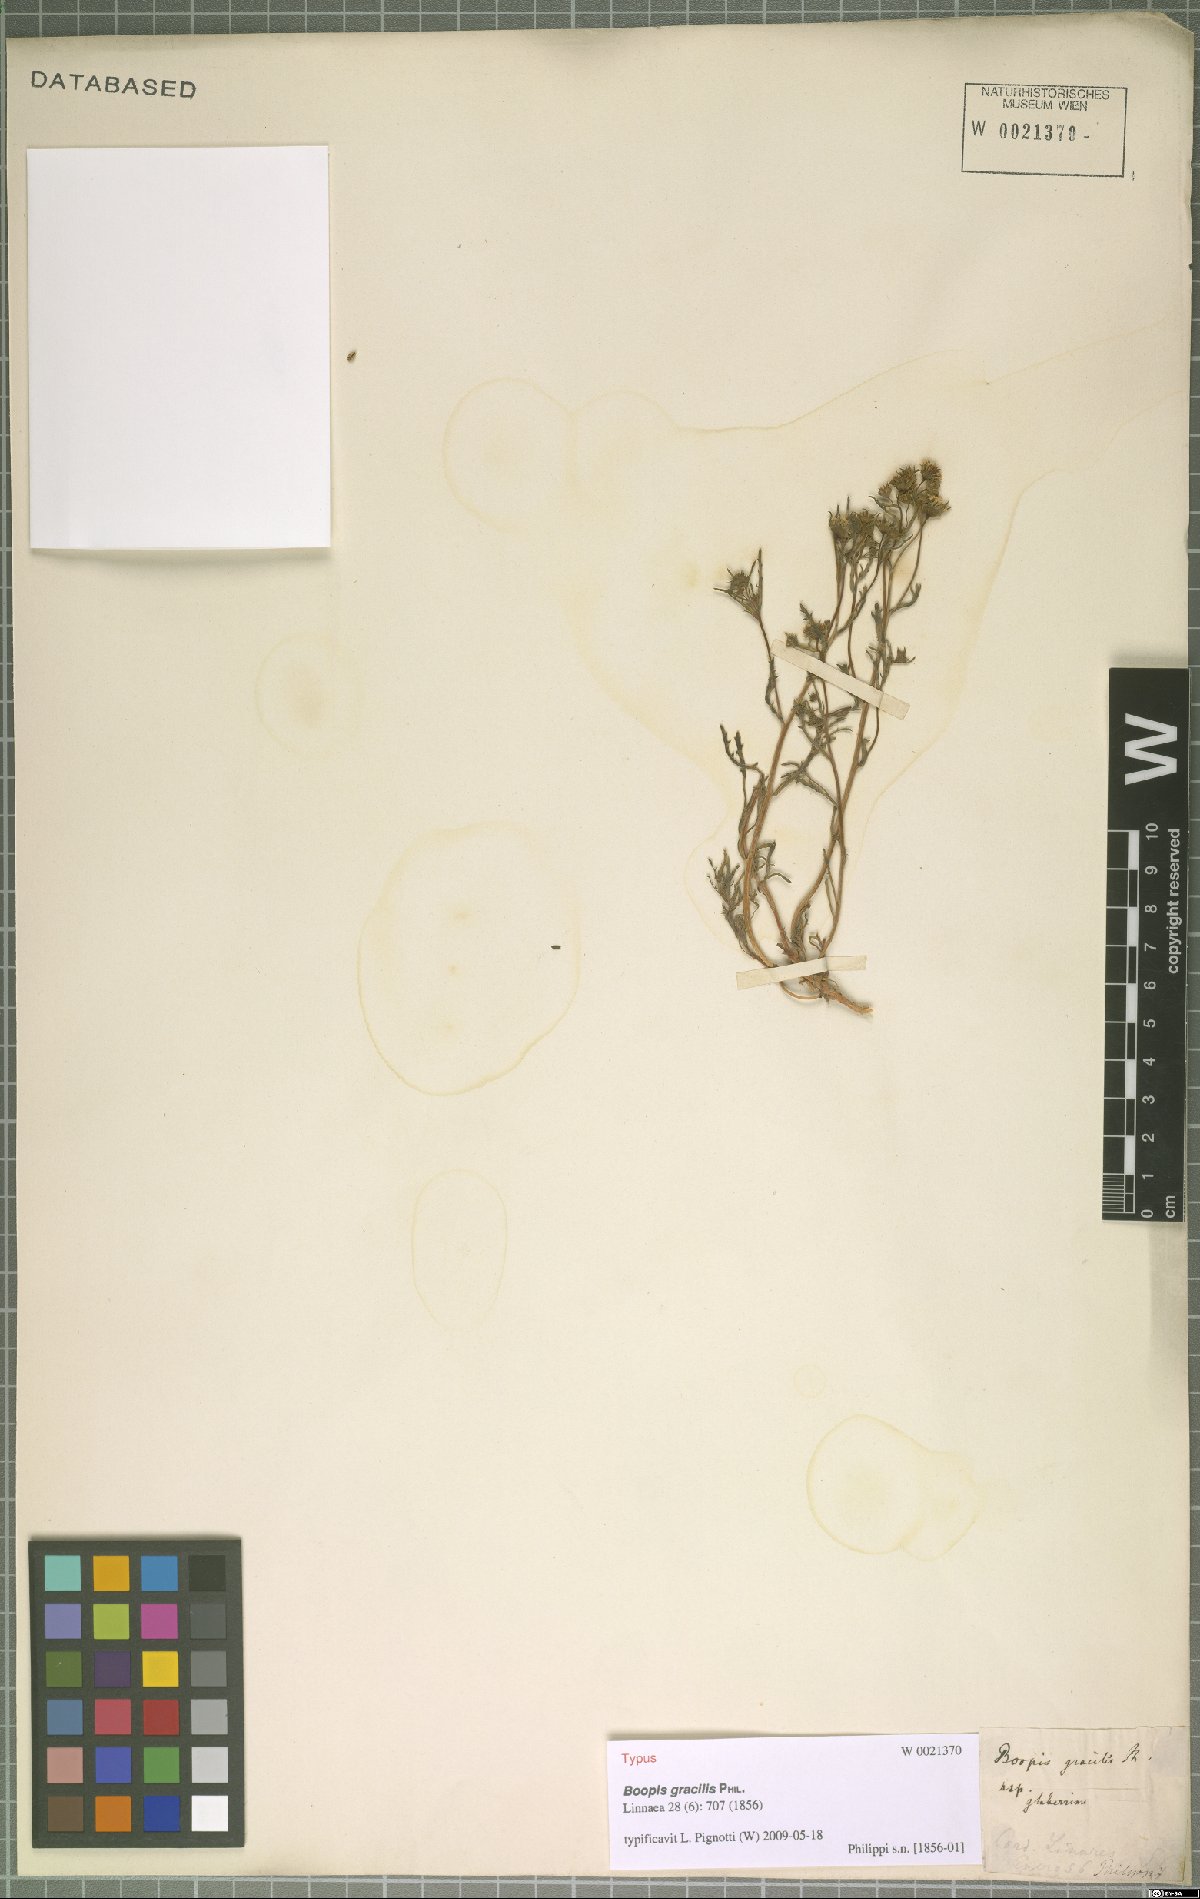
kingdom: Plantae
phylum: Tracheophyta
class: Magnoliopsida
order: Asterales
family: Calyceraceae
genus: Asynthema
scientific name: Asynthema gracile
